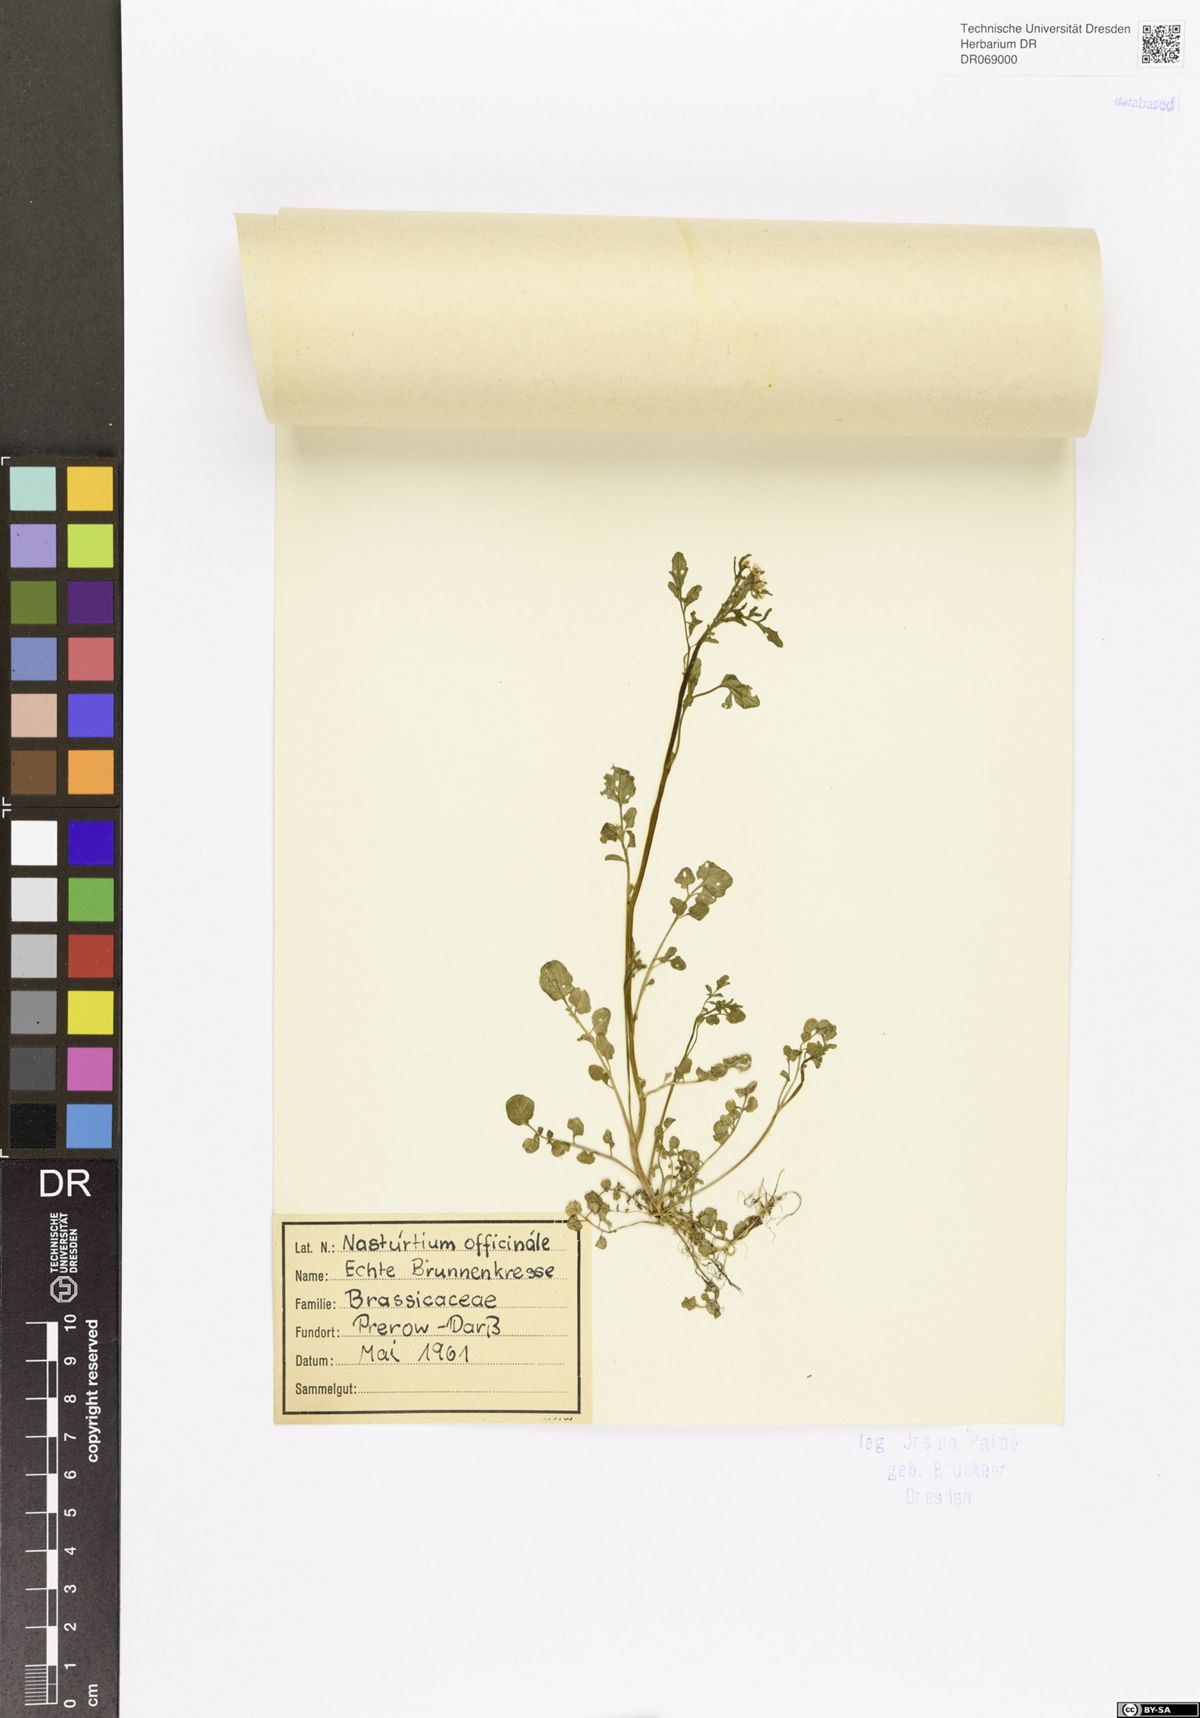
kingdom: Plantae
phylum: Tracheophyta
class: Magnoliopsida
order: Brassicales
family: Brassicaceae
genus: Nasturtium
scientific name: Nasturtium officinale
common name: Watercress
